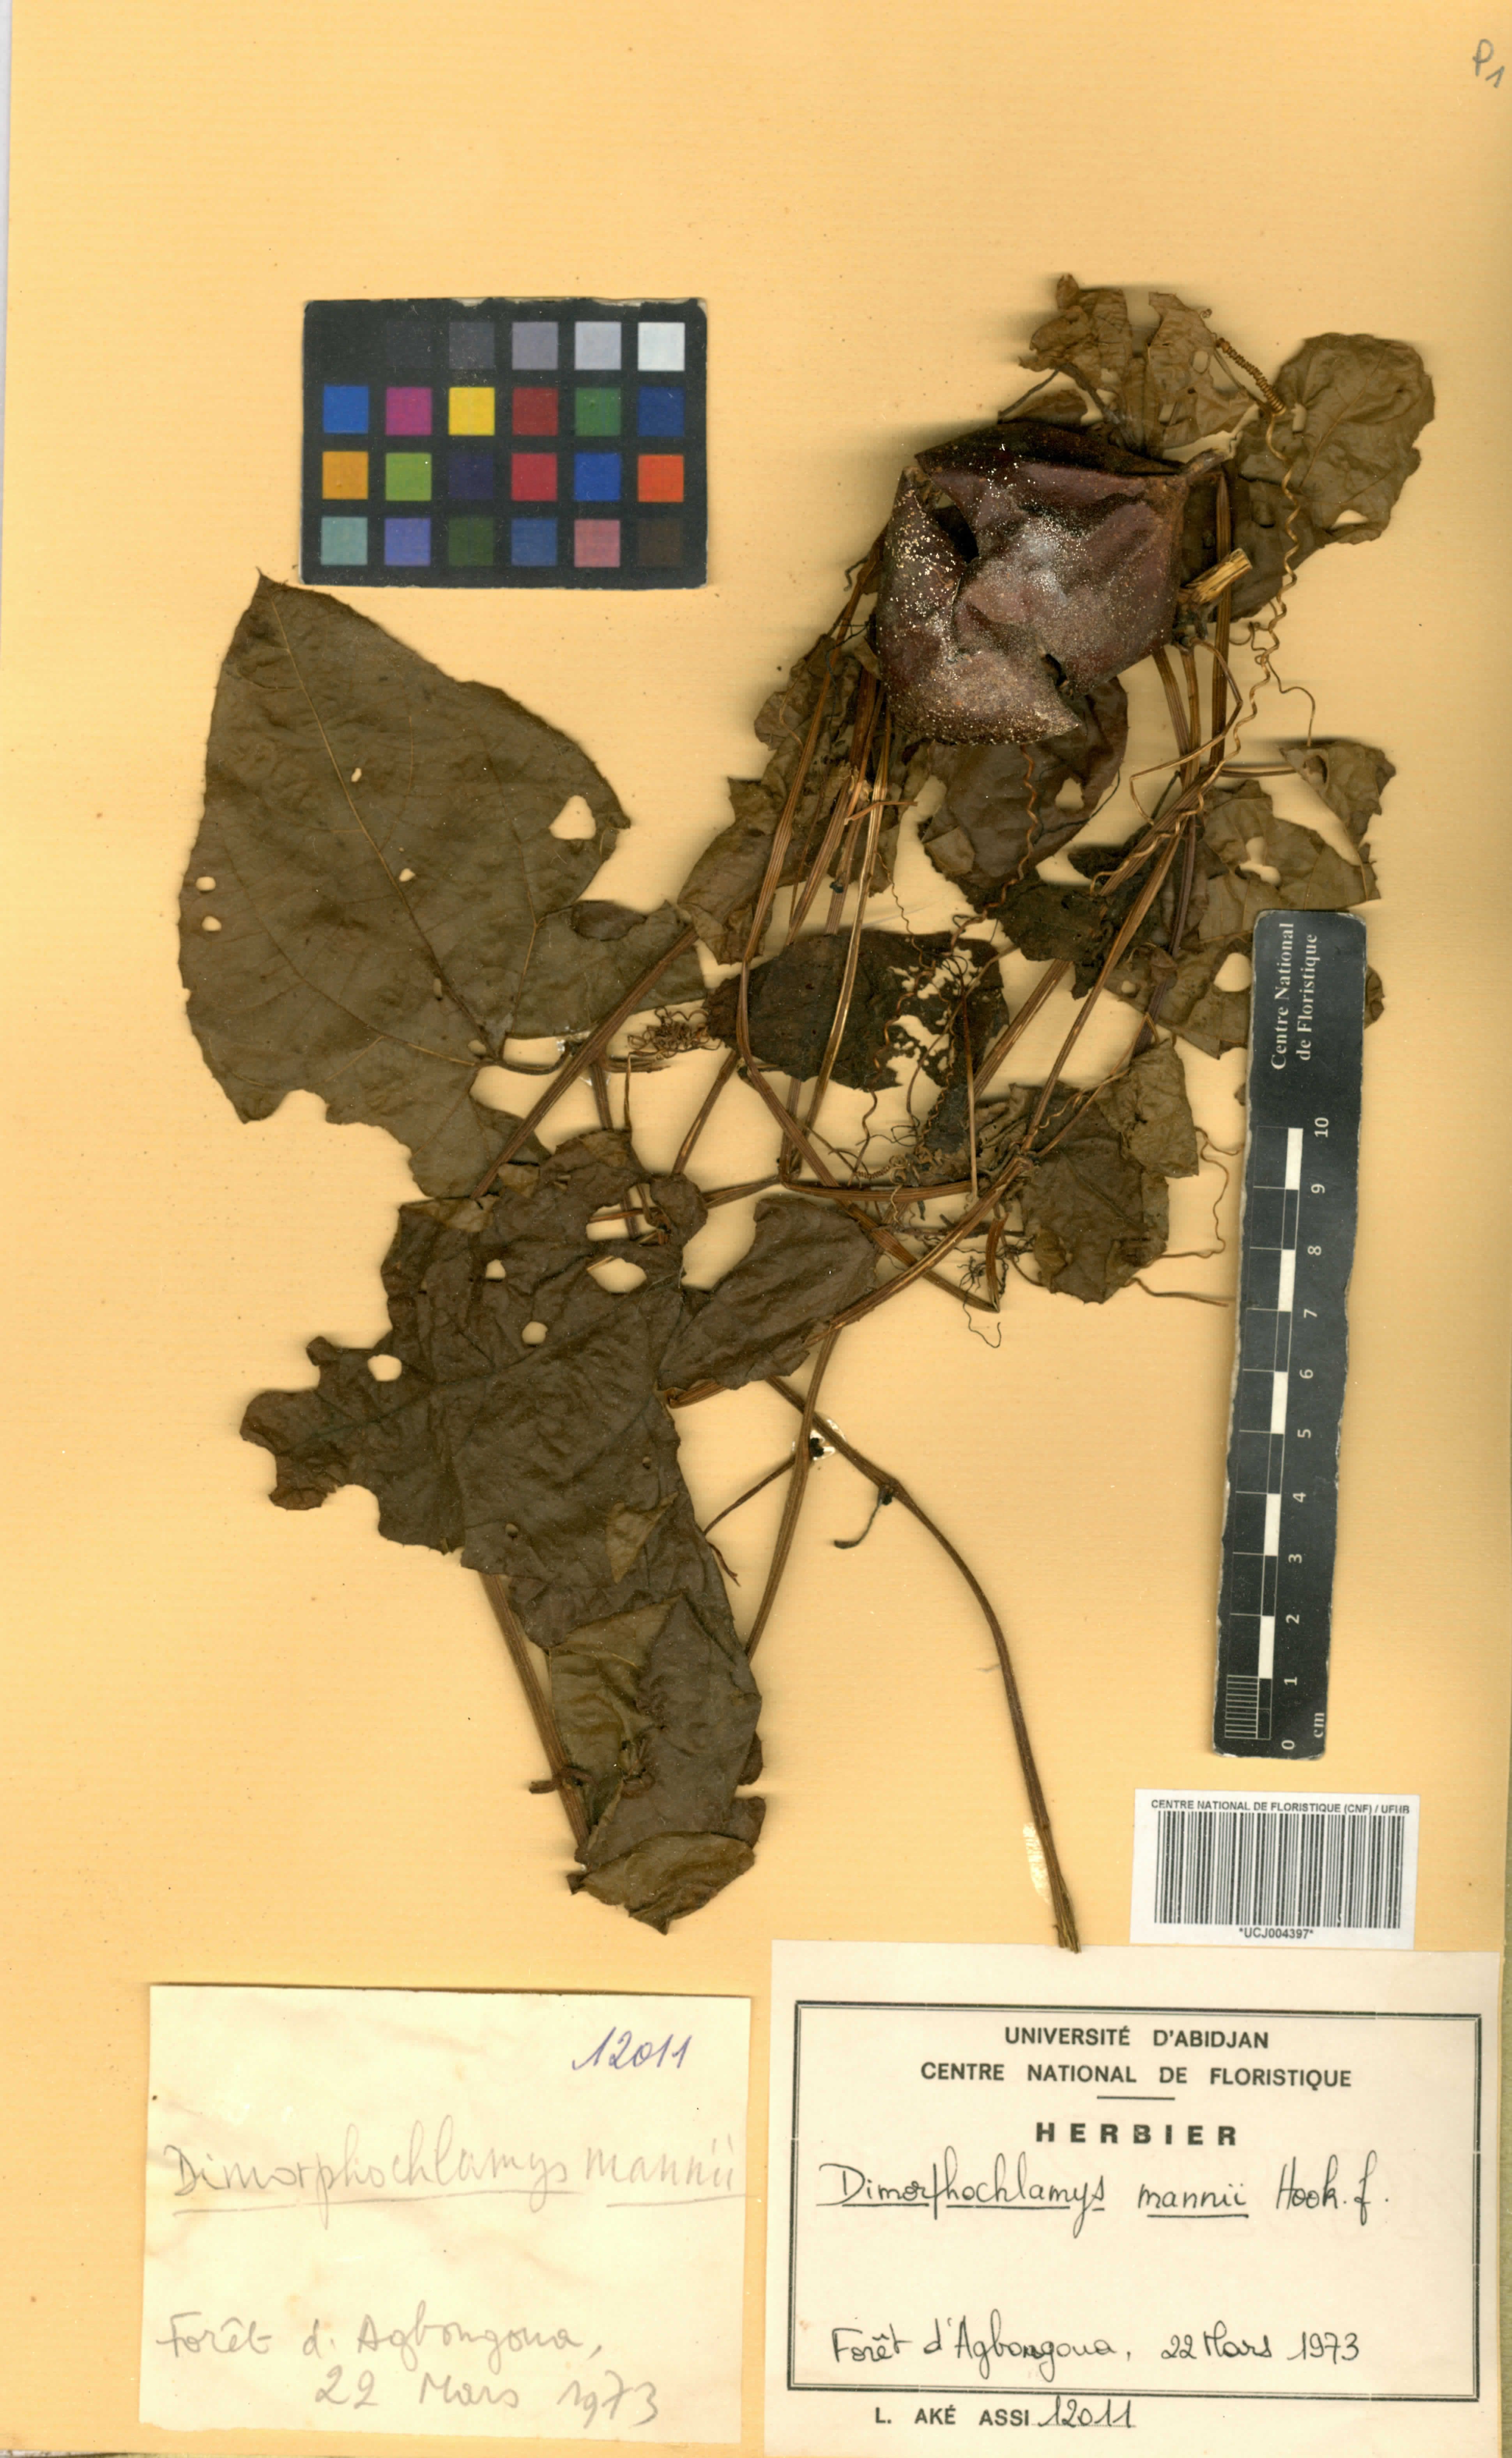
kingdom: Plantae
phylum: Tracheophyta
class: Magnoliopsida
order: Cucurbitales
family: Cucurbitaceae
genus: Momordica
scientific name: Momordica cabrae
